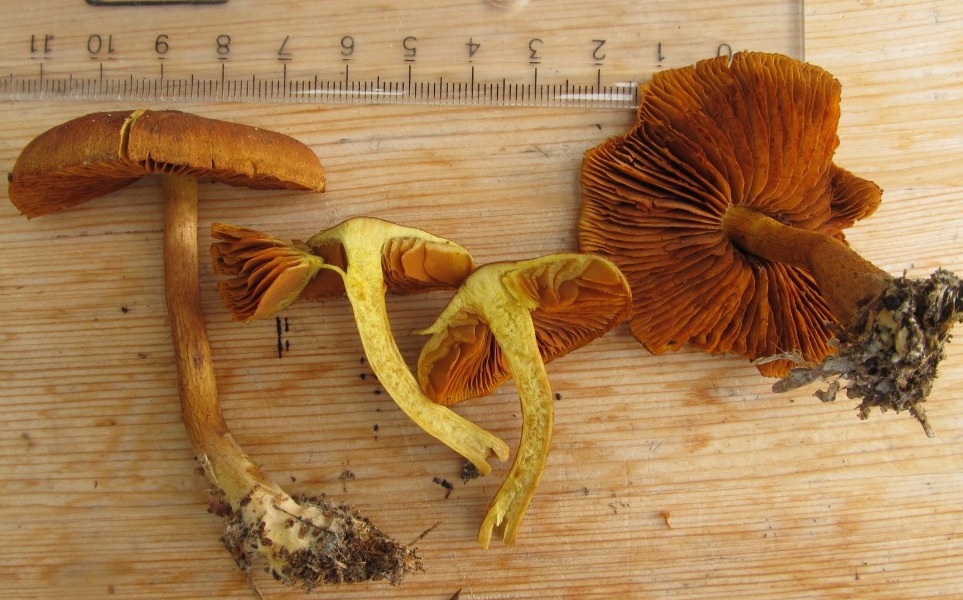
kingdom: Fungi
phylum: Basidiomycota
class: Agaricomycetes
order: Agaricales
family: Cortinariaceae
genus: Cortinarius
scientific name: Cortinarius malicorius
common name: grønkødet slørhat
